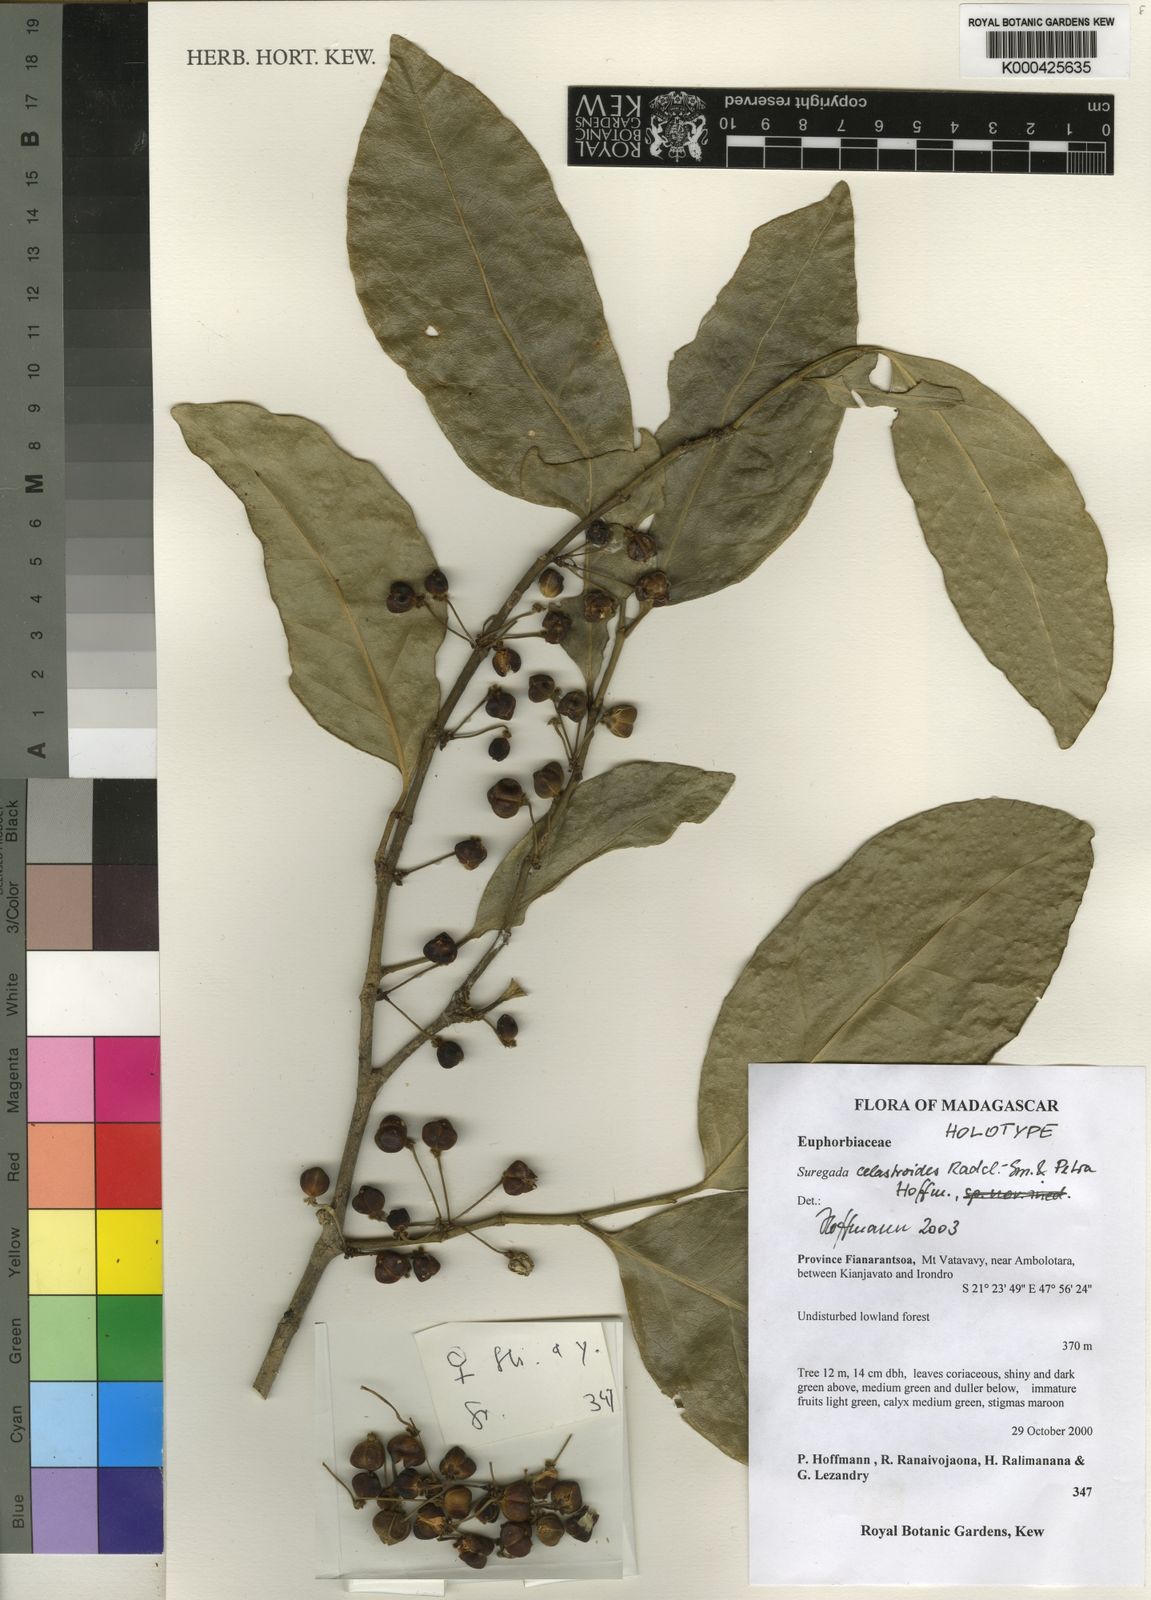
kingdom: Plantae
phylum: Tracheophyta
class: Magnoliopsida
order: Malpighiales
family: Euphorbiaceae
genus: Suregada
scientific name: Suregada celastroides
